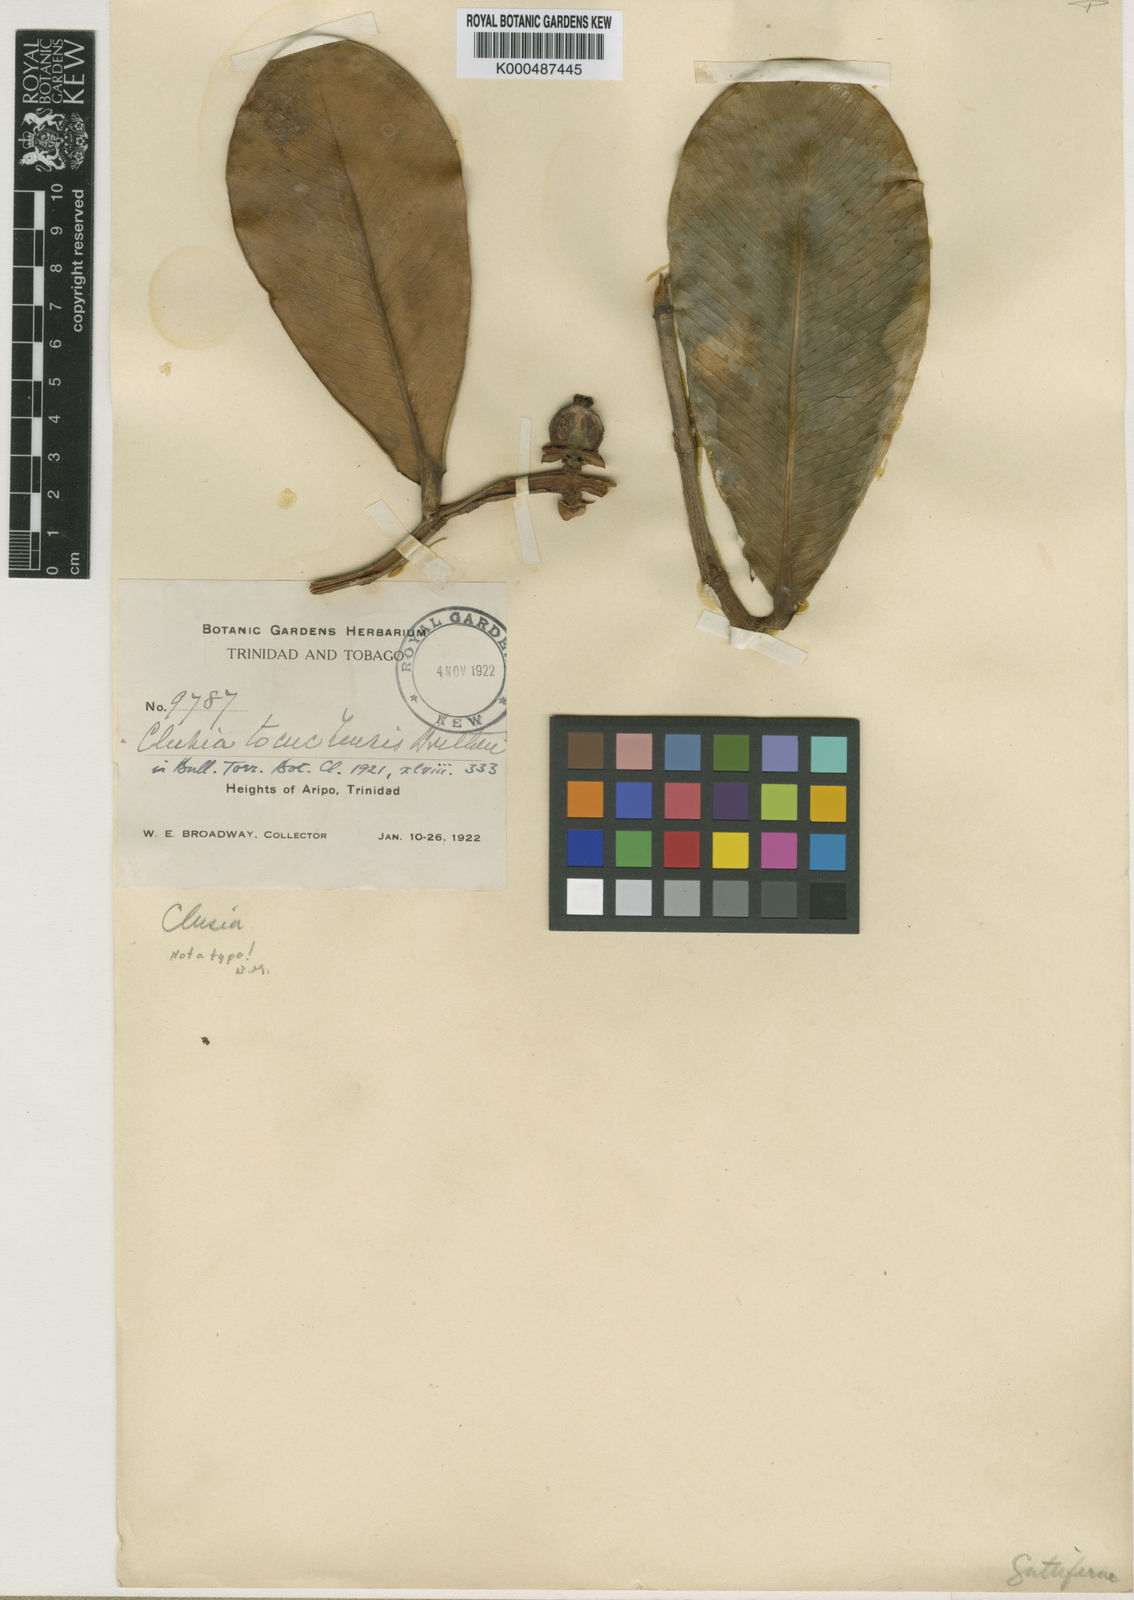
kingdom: Plantae
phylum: Tracheophyta
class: Magnoliopsida
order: Malpighiales
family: Clusiaceae
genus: Clusia
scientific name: Clusia tocuchensis
